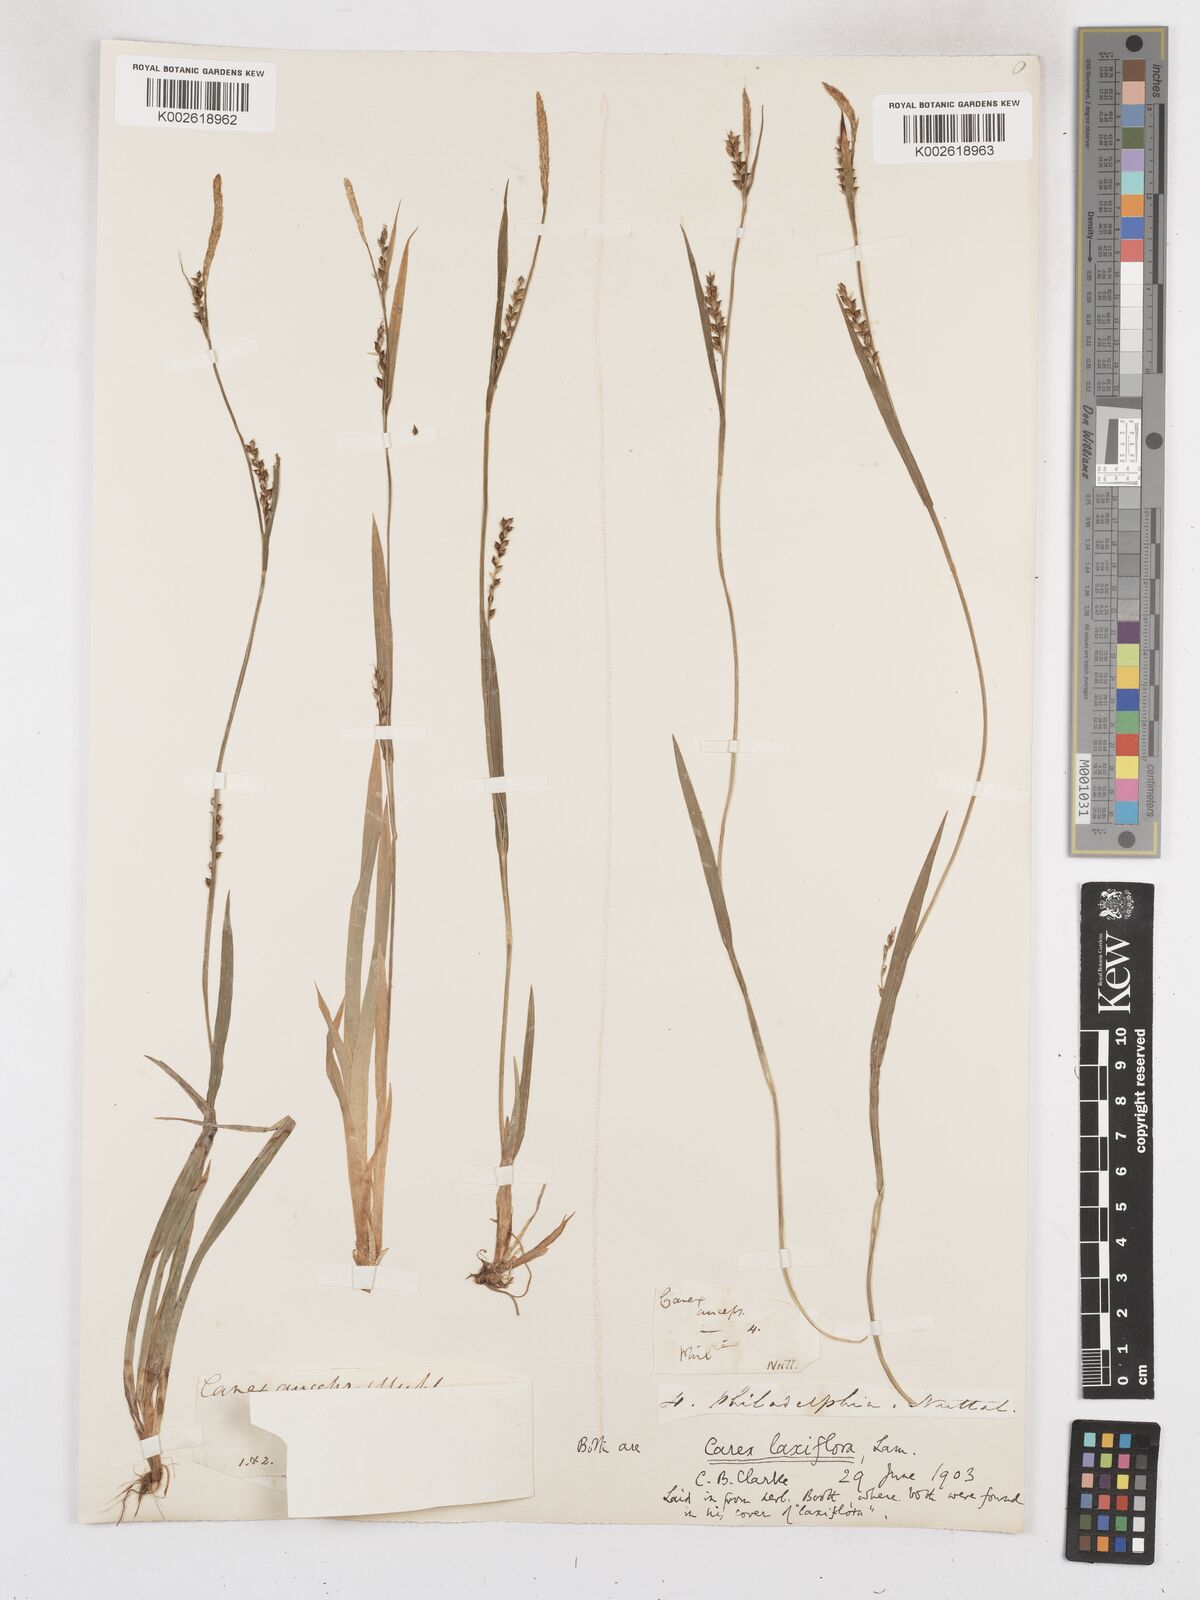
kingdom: Plantae
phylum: Tracheophyta
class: Liliopsida
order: Poales
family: Cyperaceae
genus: Carex
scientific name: Carex laxiflora
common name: Beech wood sedge
